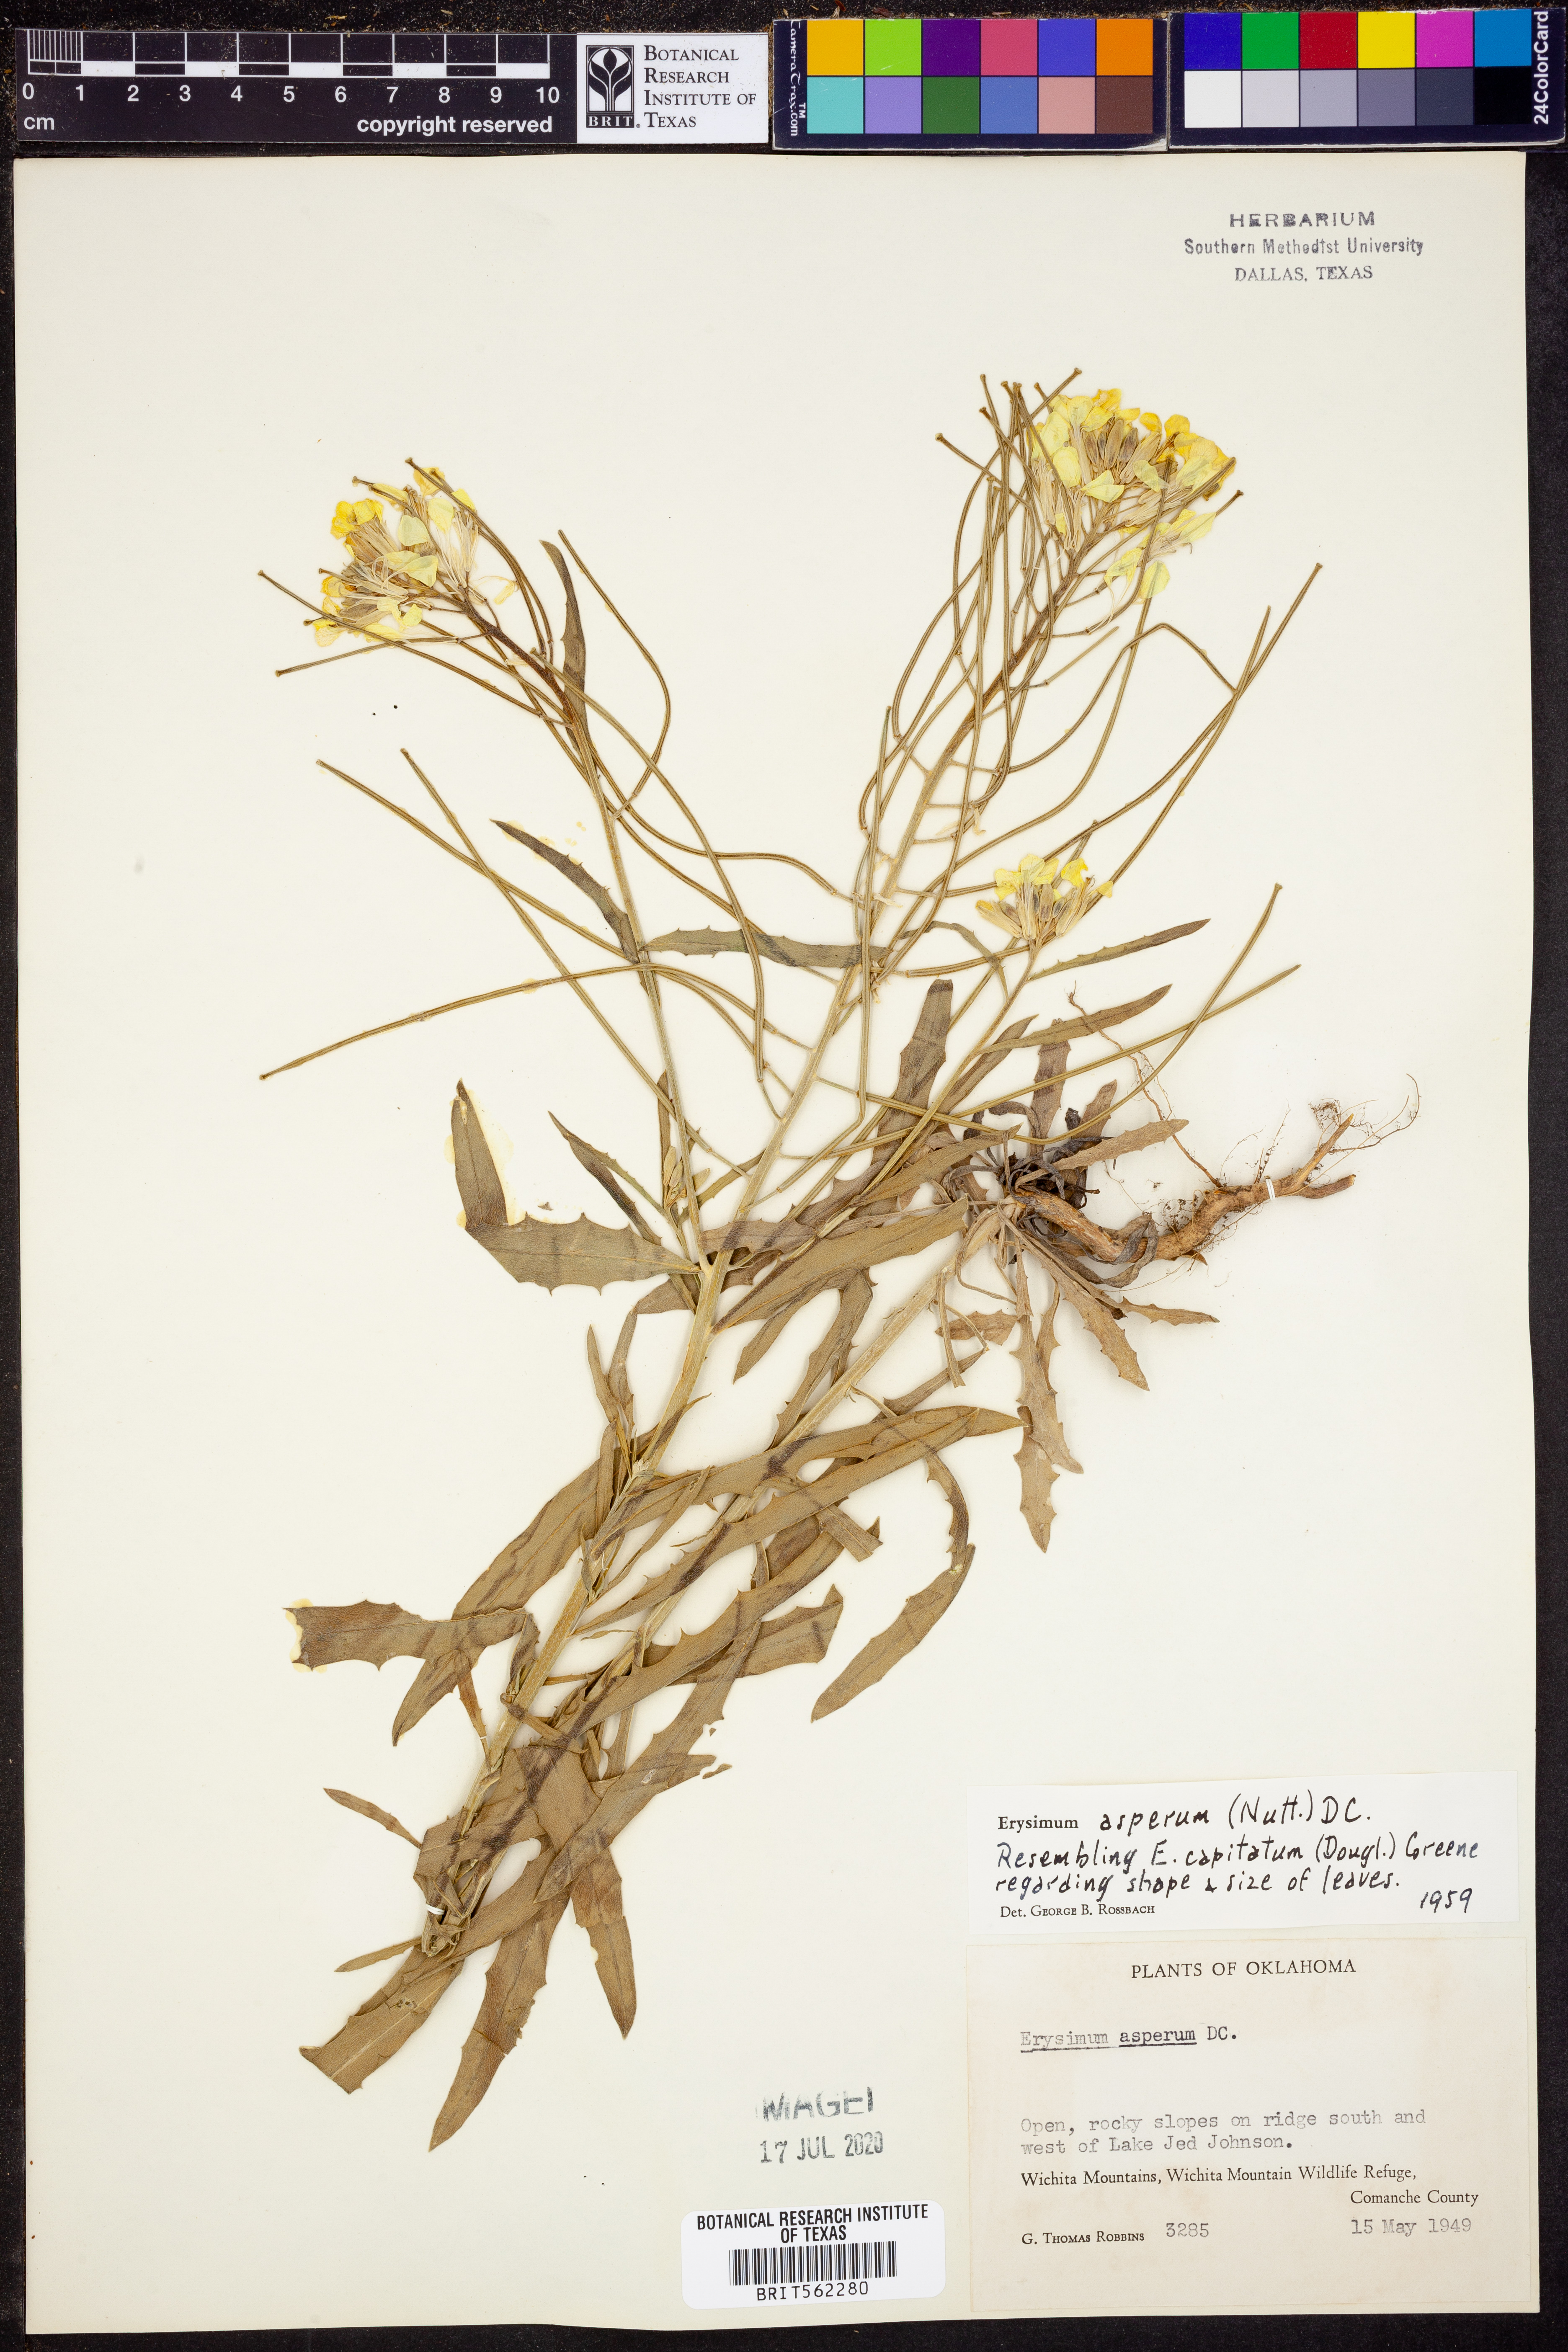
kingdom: Plantae
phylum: Tracheophyta
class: Magnoliopsida
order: Brassicales
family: Brassicaceae
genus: Erysimum
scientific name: Erysimum asperum
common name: Western wallflower
